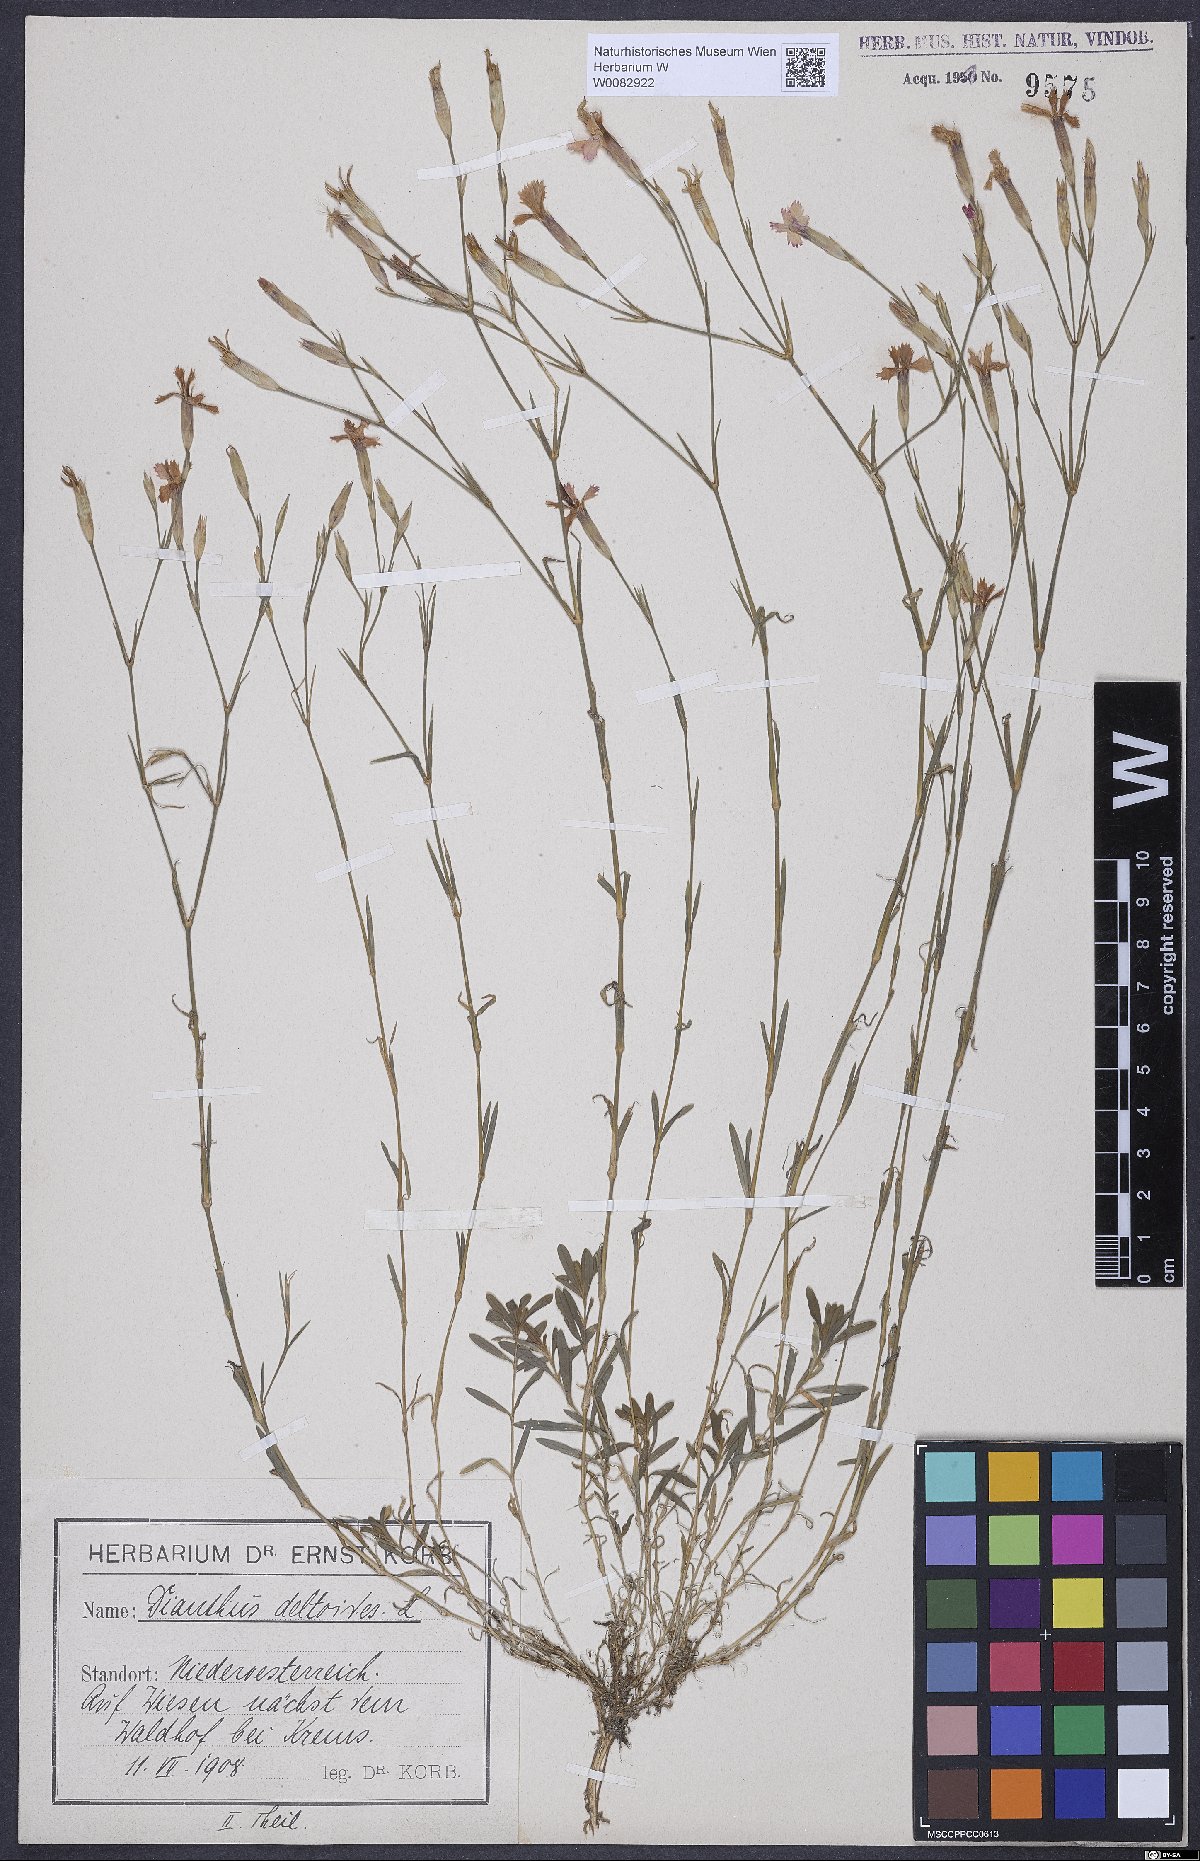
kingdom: Plantae
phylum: Tracheophyta
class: Magnoliopsida
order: Caryophyllales
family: Caryophyllaceae
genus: Dianthus
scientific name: Dianthus deltoides
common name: Maiden pink
